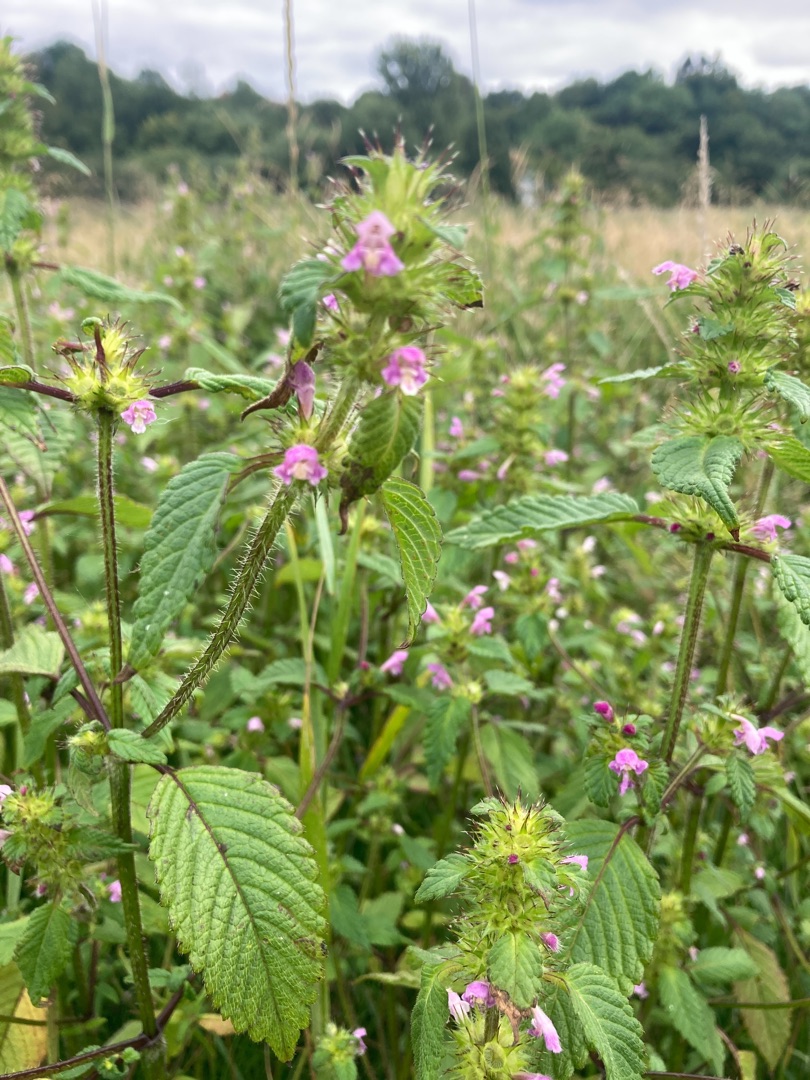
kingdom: Plantae
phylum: Tracheophyta
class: Magnoliopsida
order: Lamiales
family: Lamiaceae
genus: Galeopsis
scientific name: Galeopsis bifida
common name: Skov-hanekro
